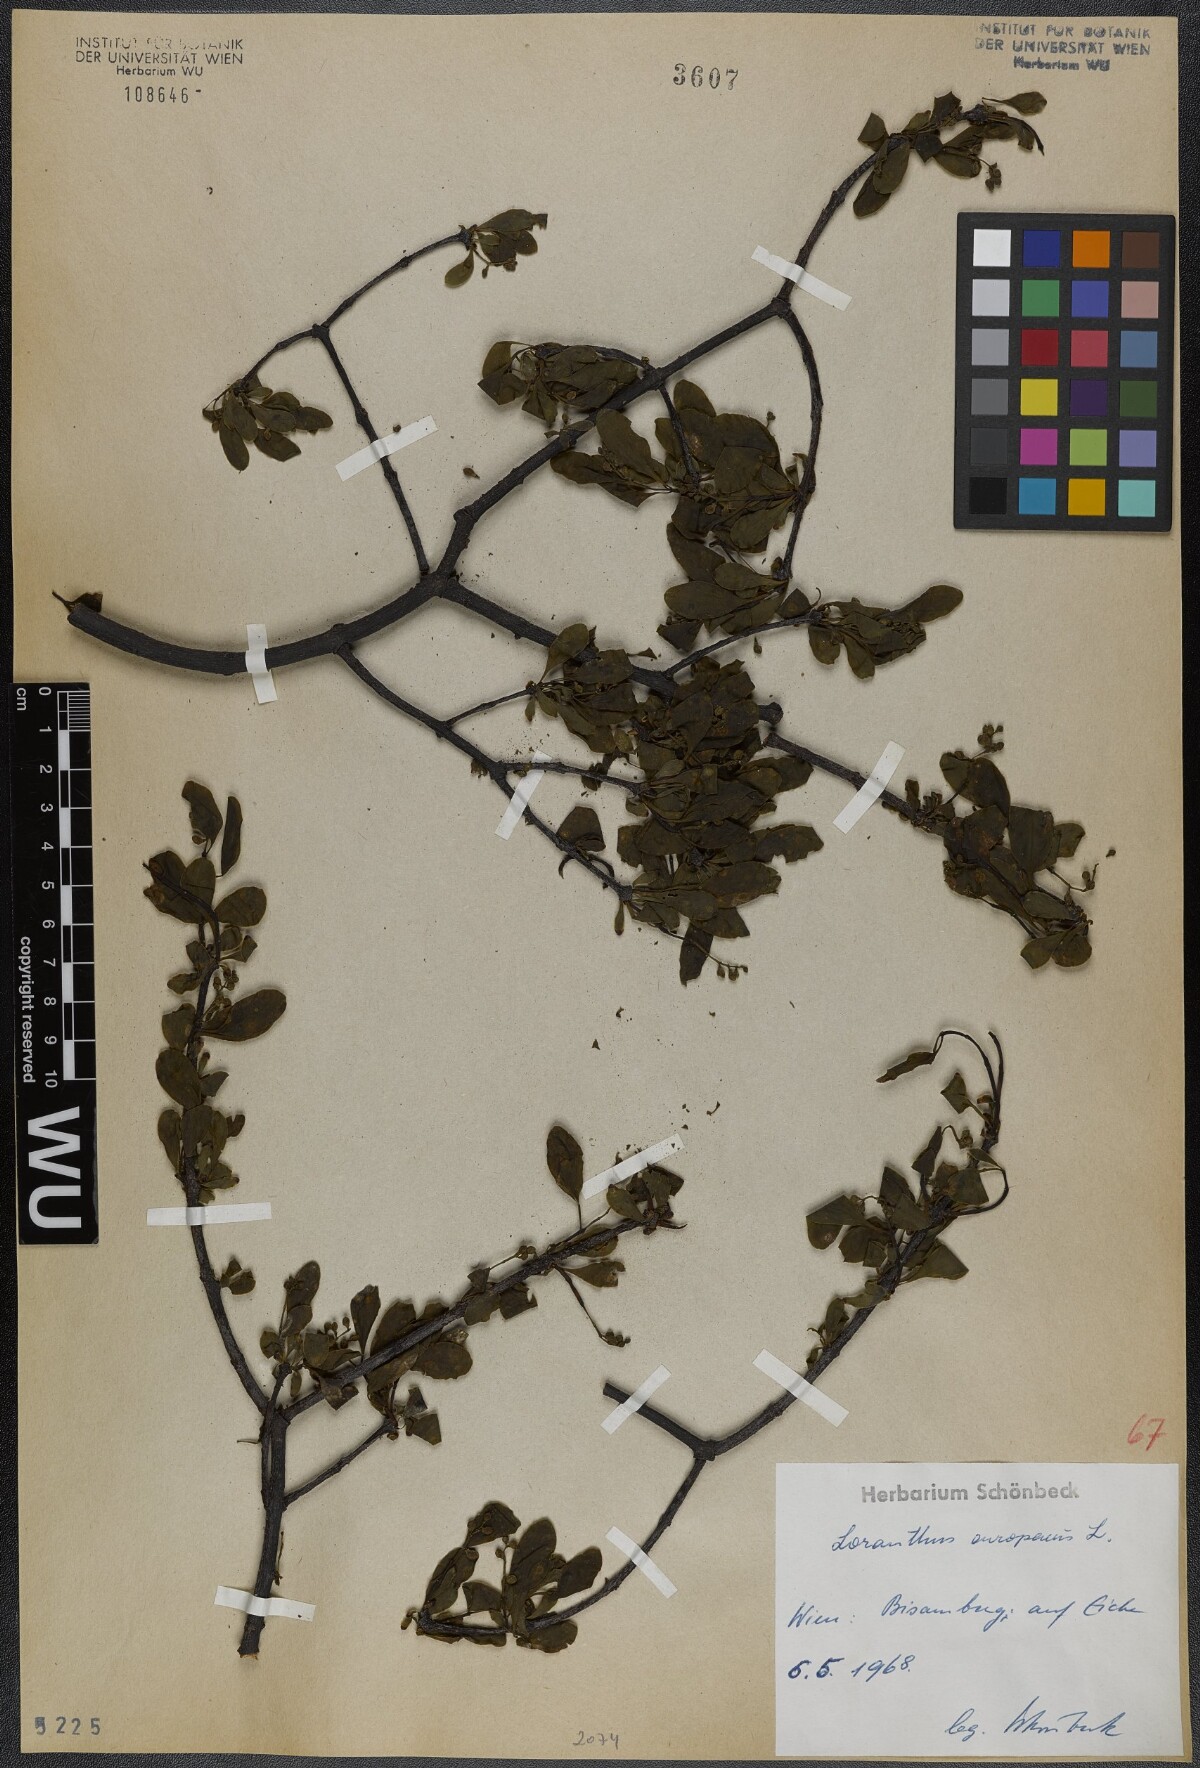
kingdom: Plantae
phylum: Tracheophyta
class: Magnoliopsida
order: Santalales
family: Loranthaceae
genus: Loranthus
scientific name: Loranthus europaeus
